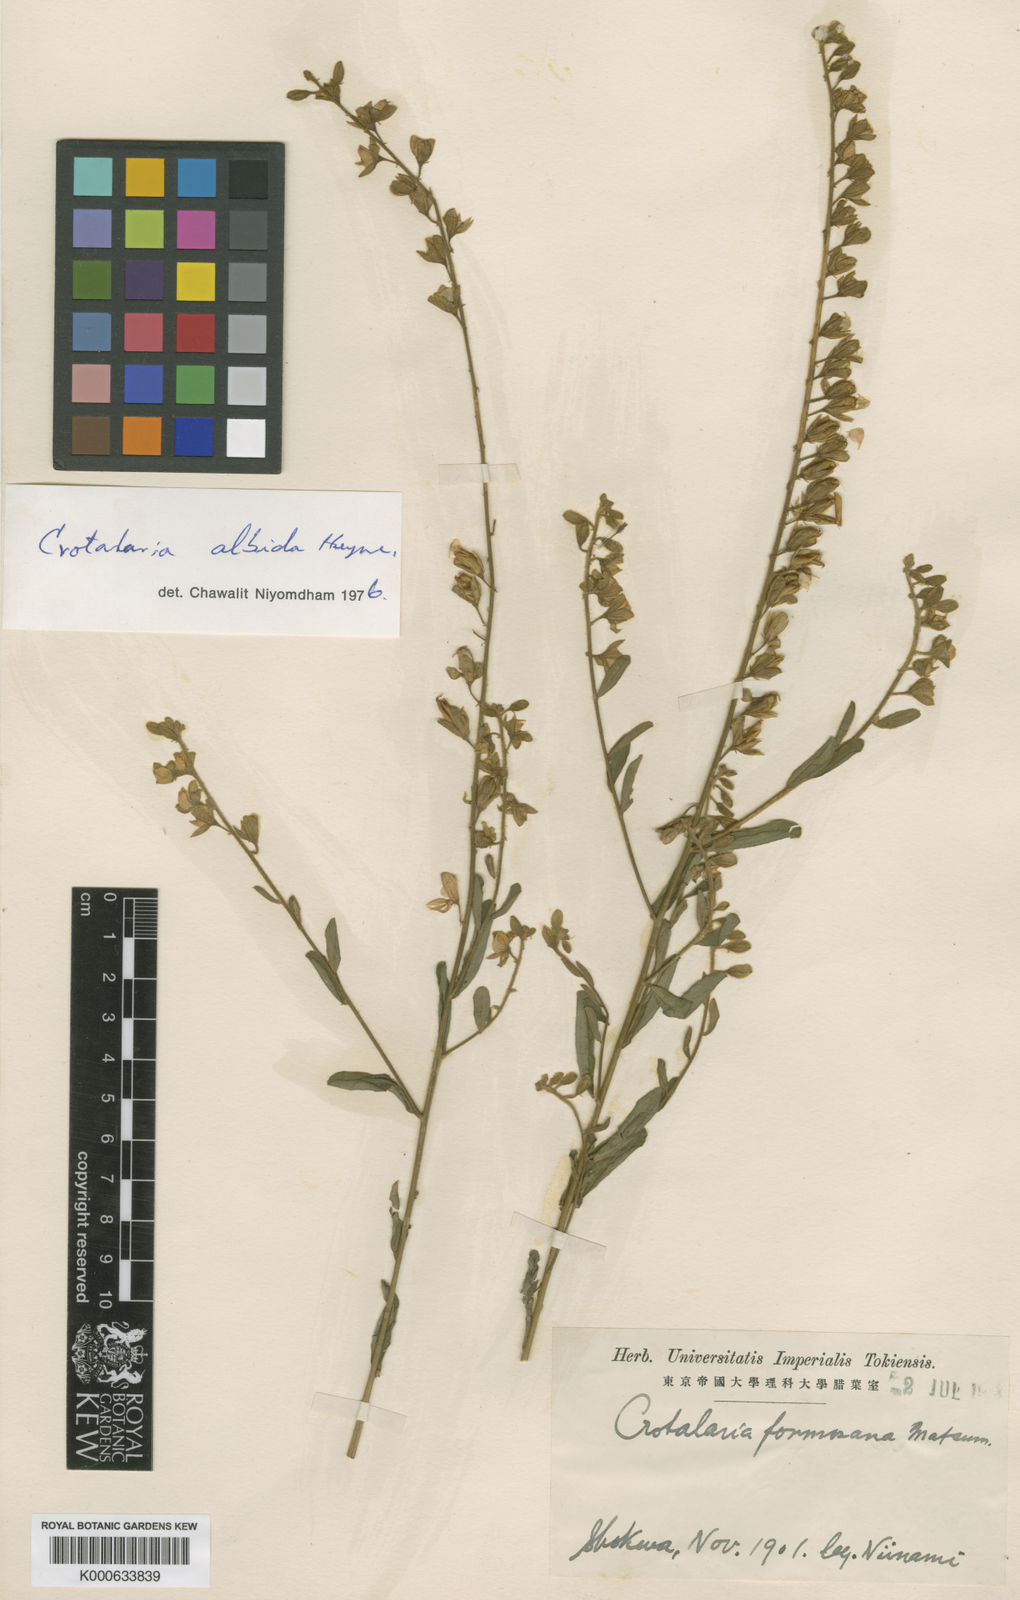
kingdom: Plantae
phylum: Tracheophyta
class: Magnoliopsida
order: Fabales
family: Fabaceae
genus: Crotalaria
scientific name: Crotalaria
